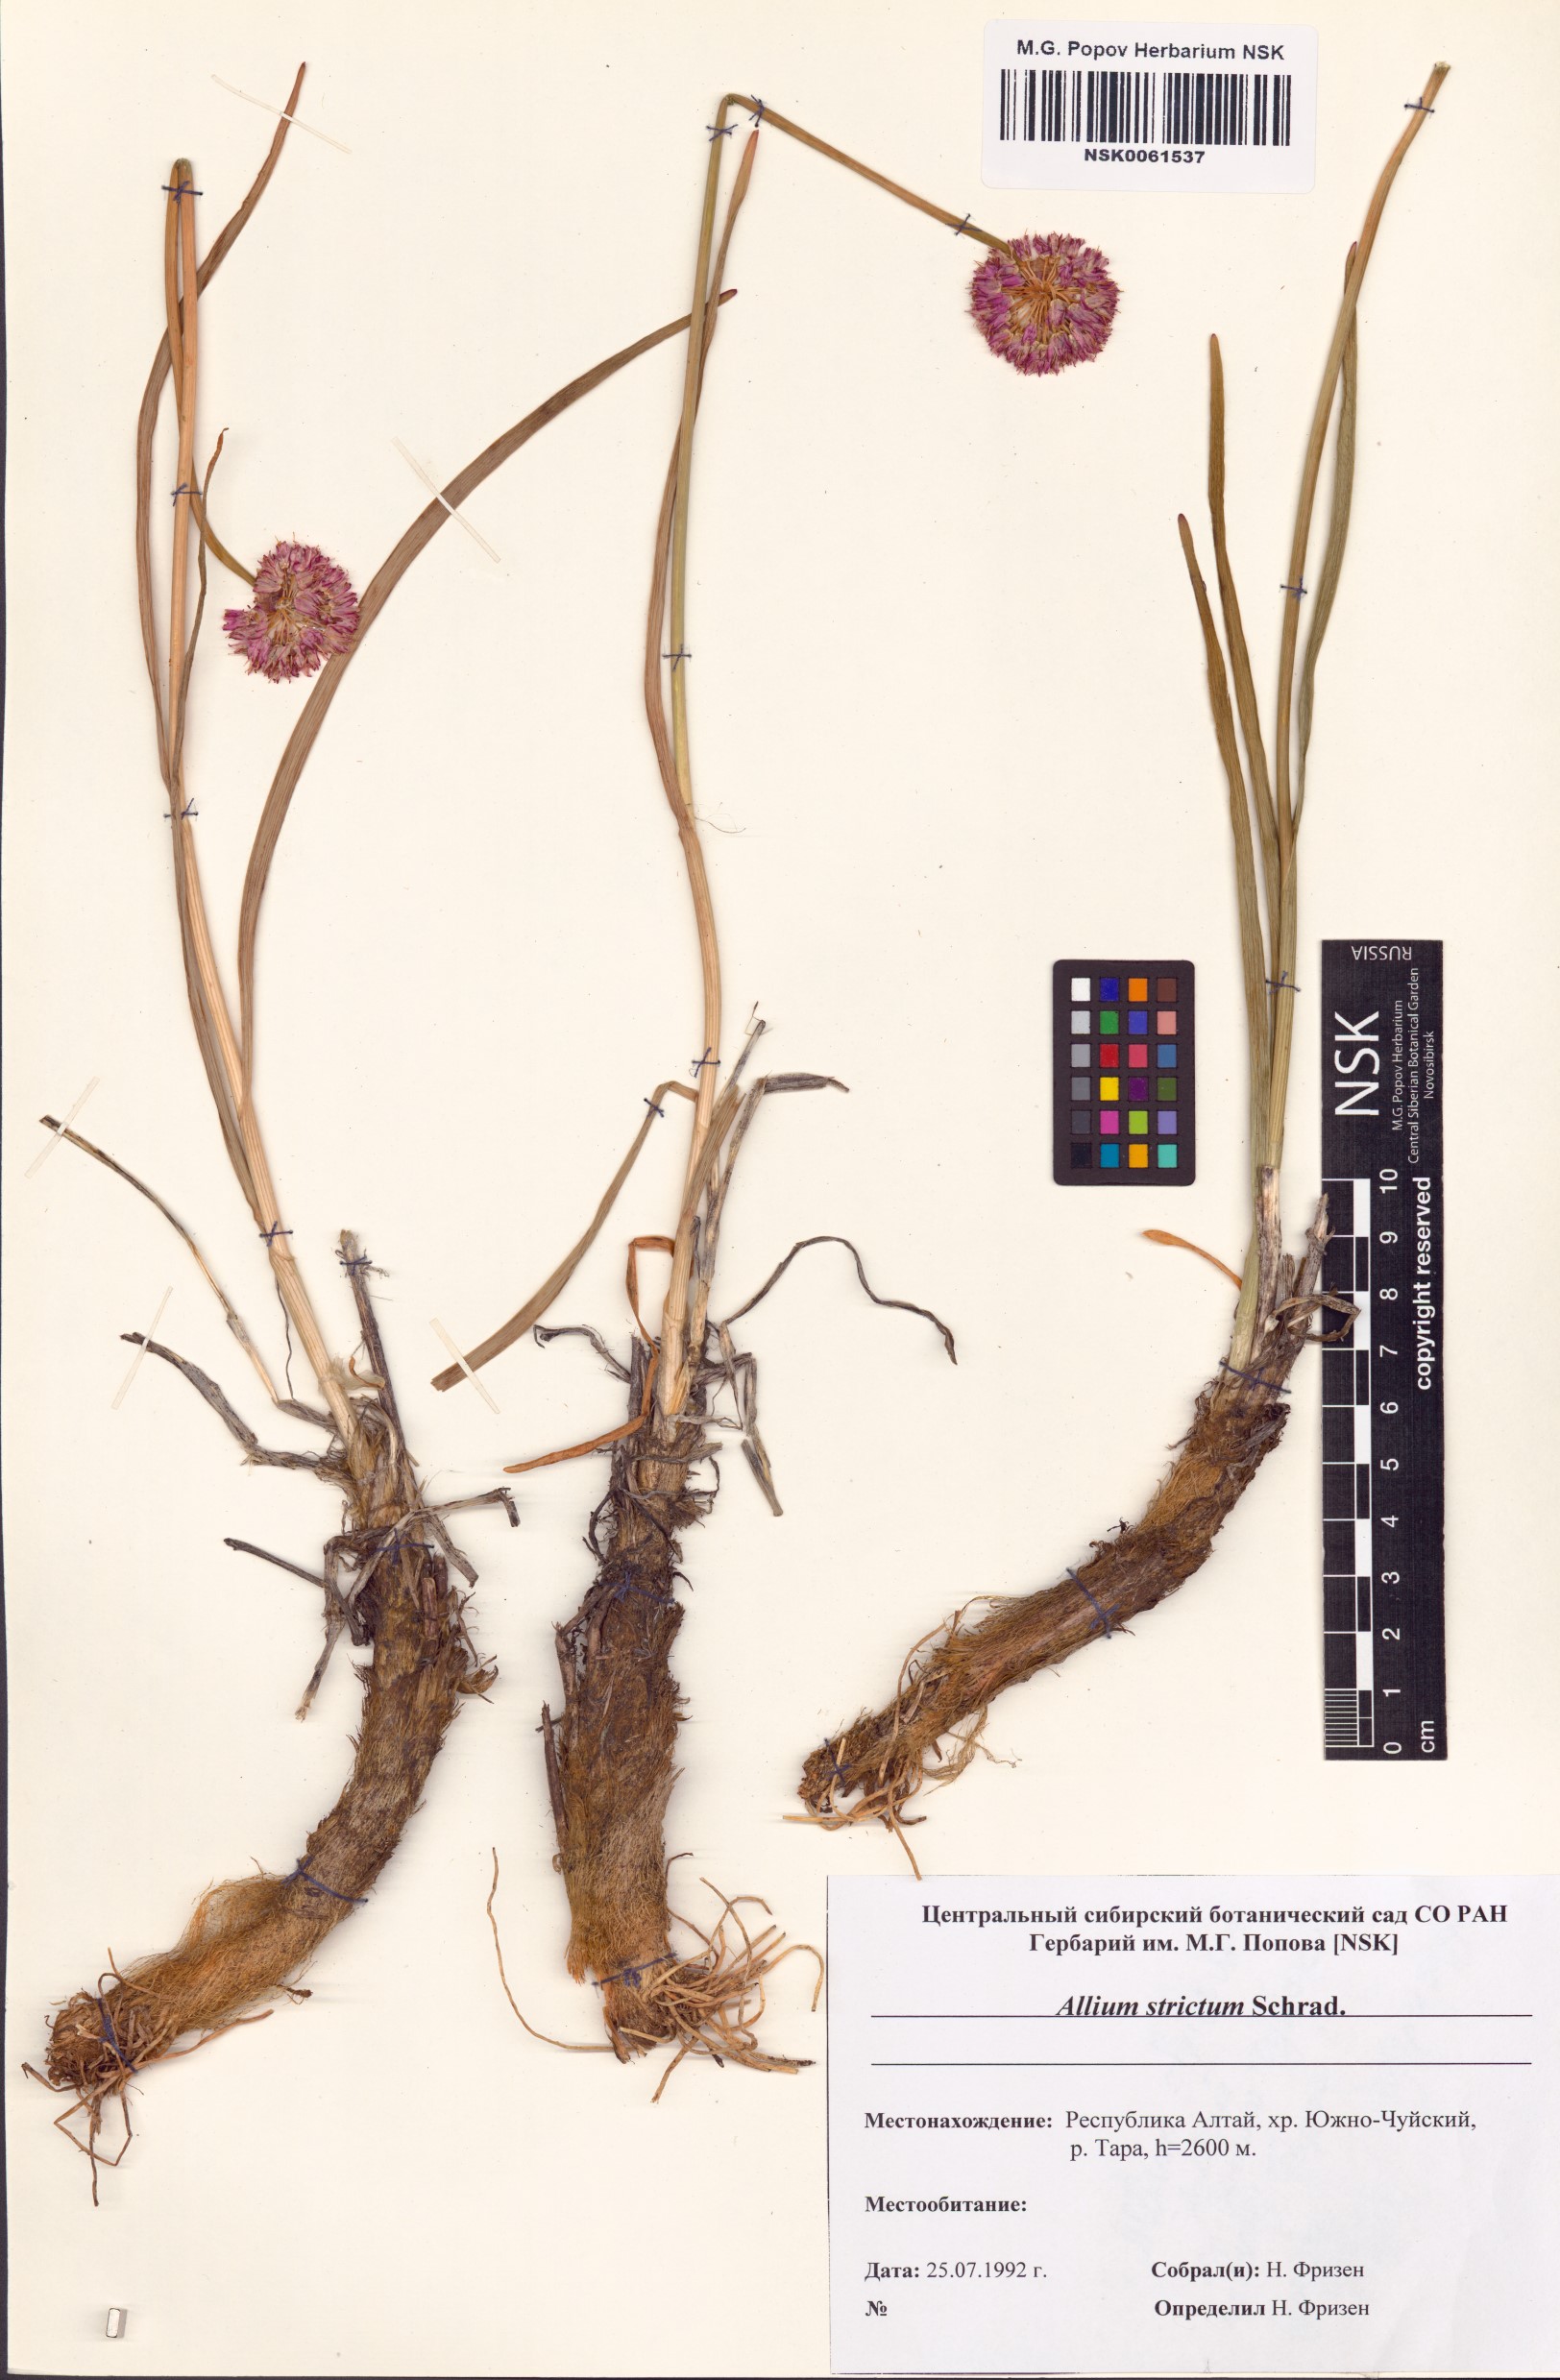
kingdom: Plantae
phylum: Tracheophyta
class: Liliopsida
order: Asparagales
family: Amaryllidaceae
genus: Allium
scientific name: Allium strictum
